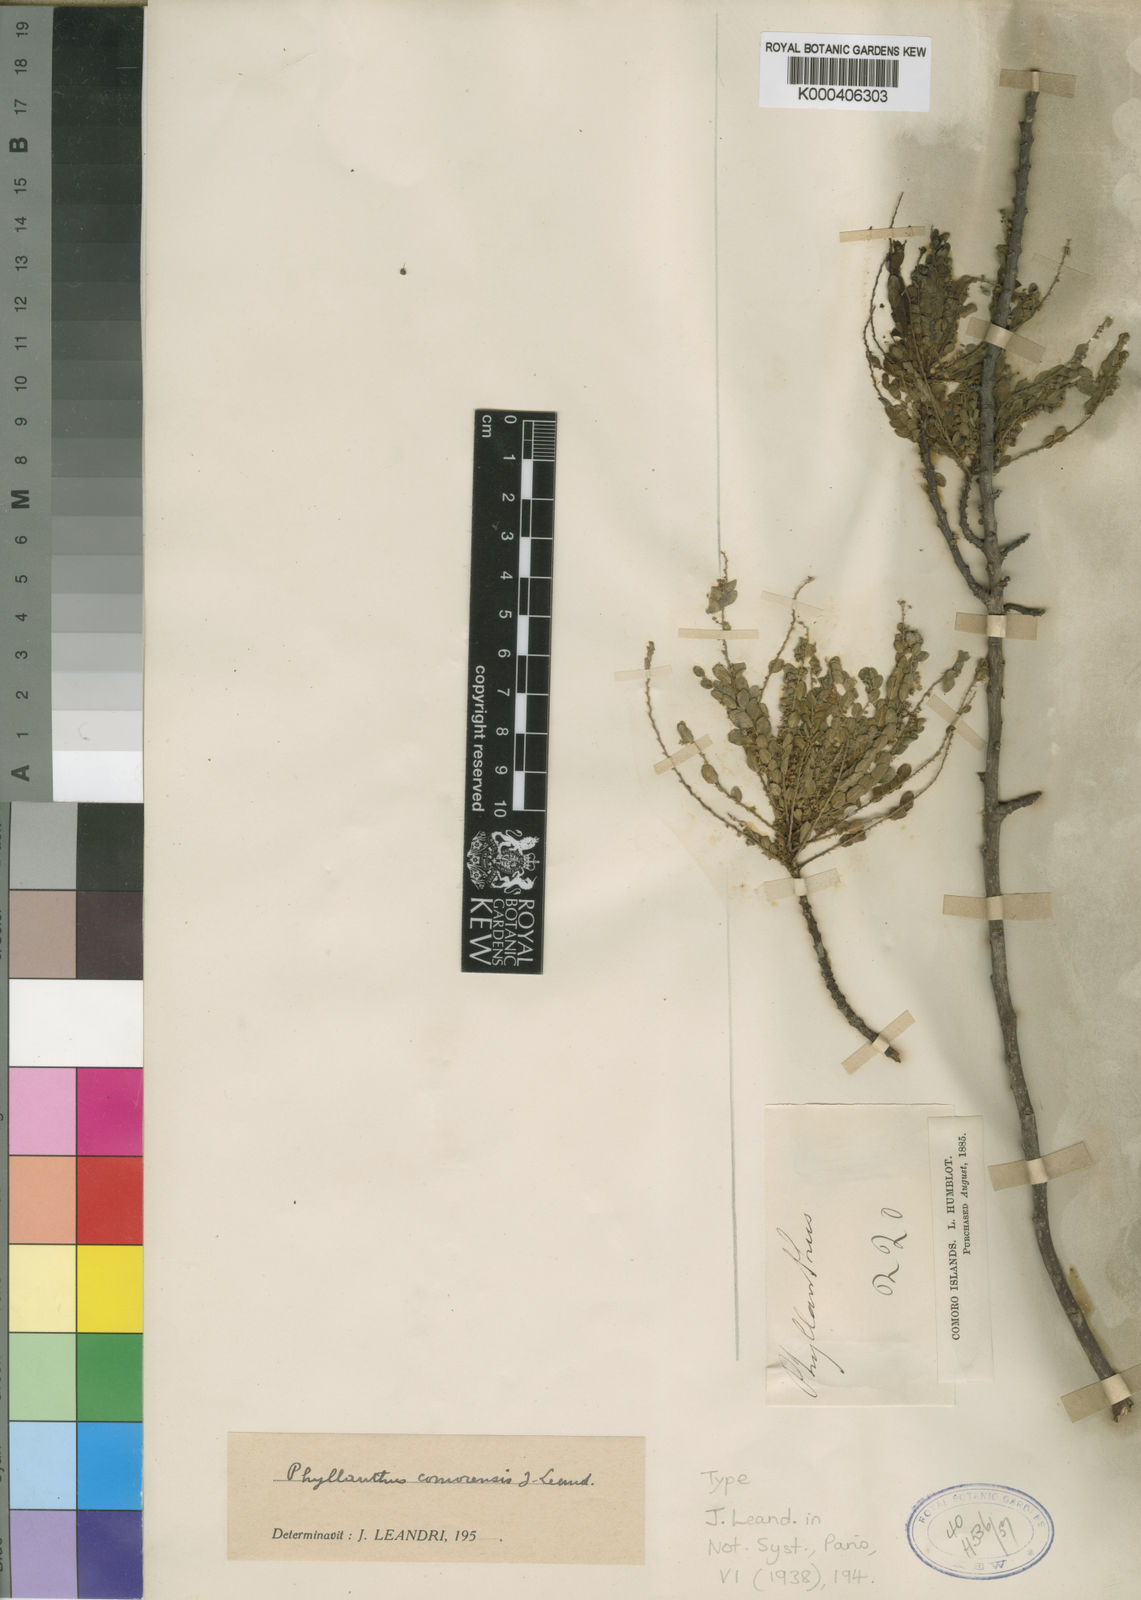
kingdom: Plantae
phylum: Tracheophyta
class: Magnoliopsida
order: Malpighiales
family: Phyllanthaceae
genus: Phyllanthus
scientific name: Phyllanthus comorensis
